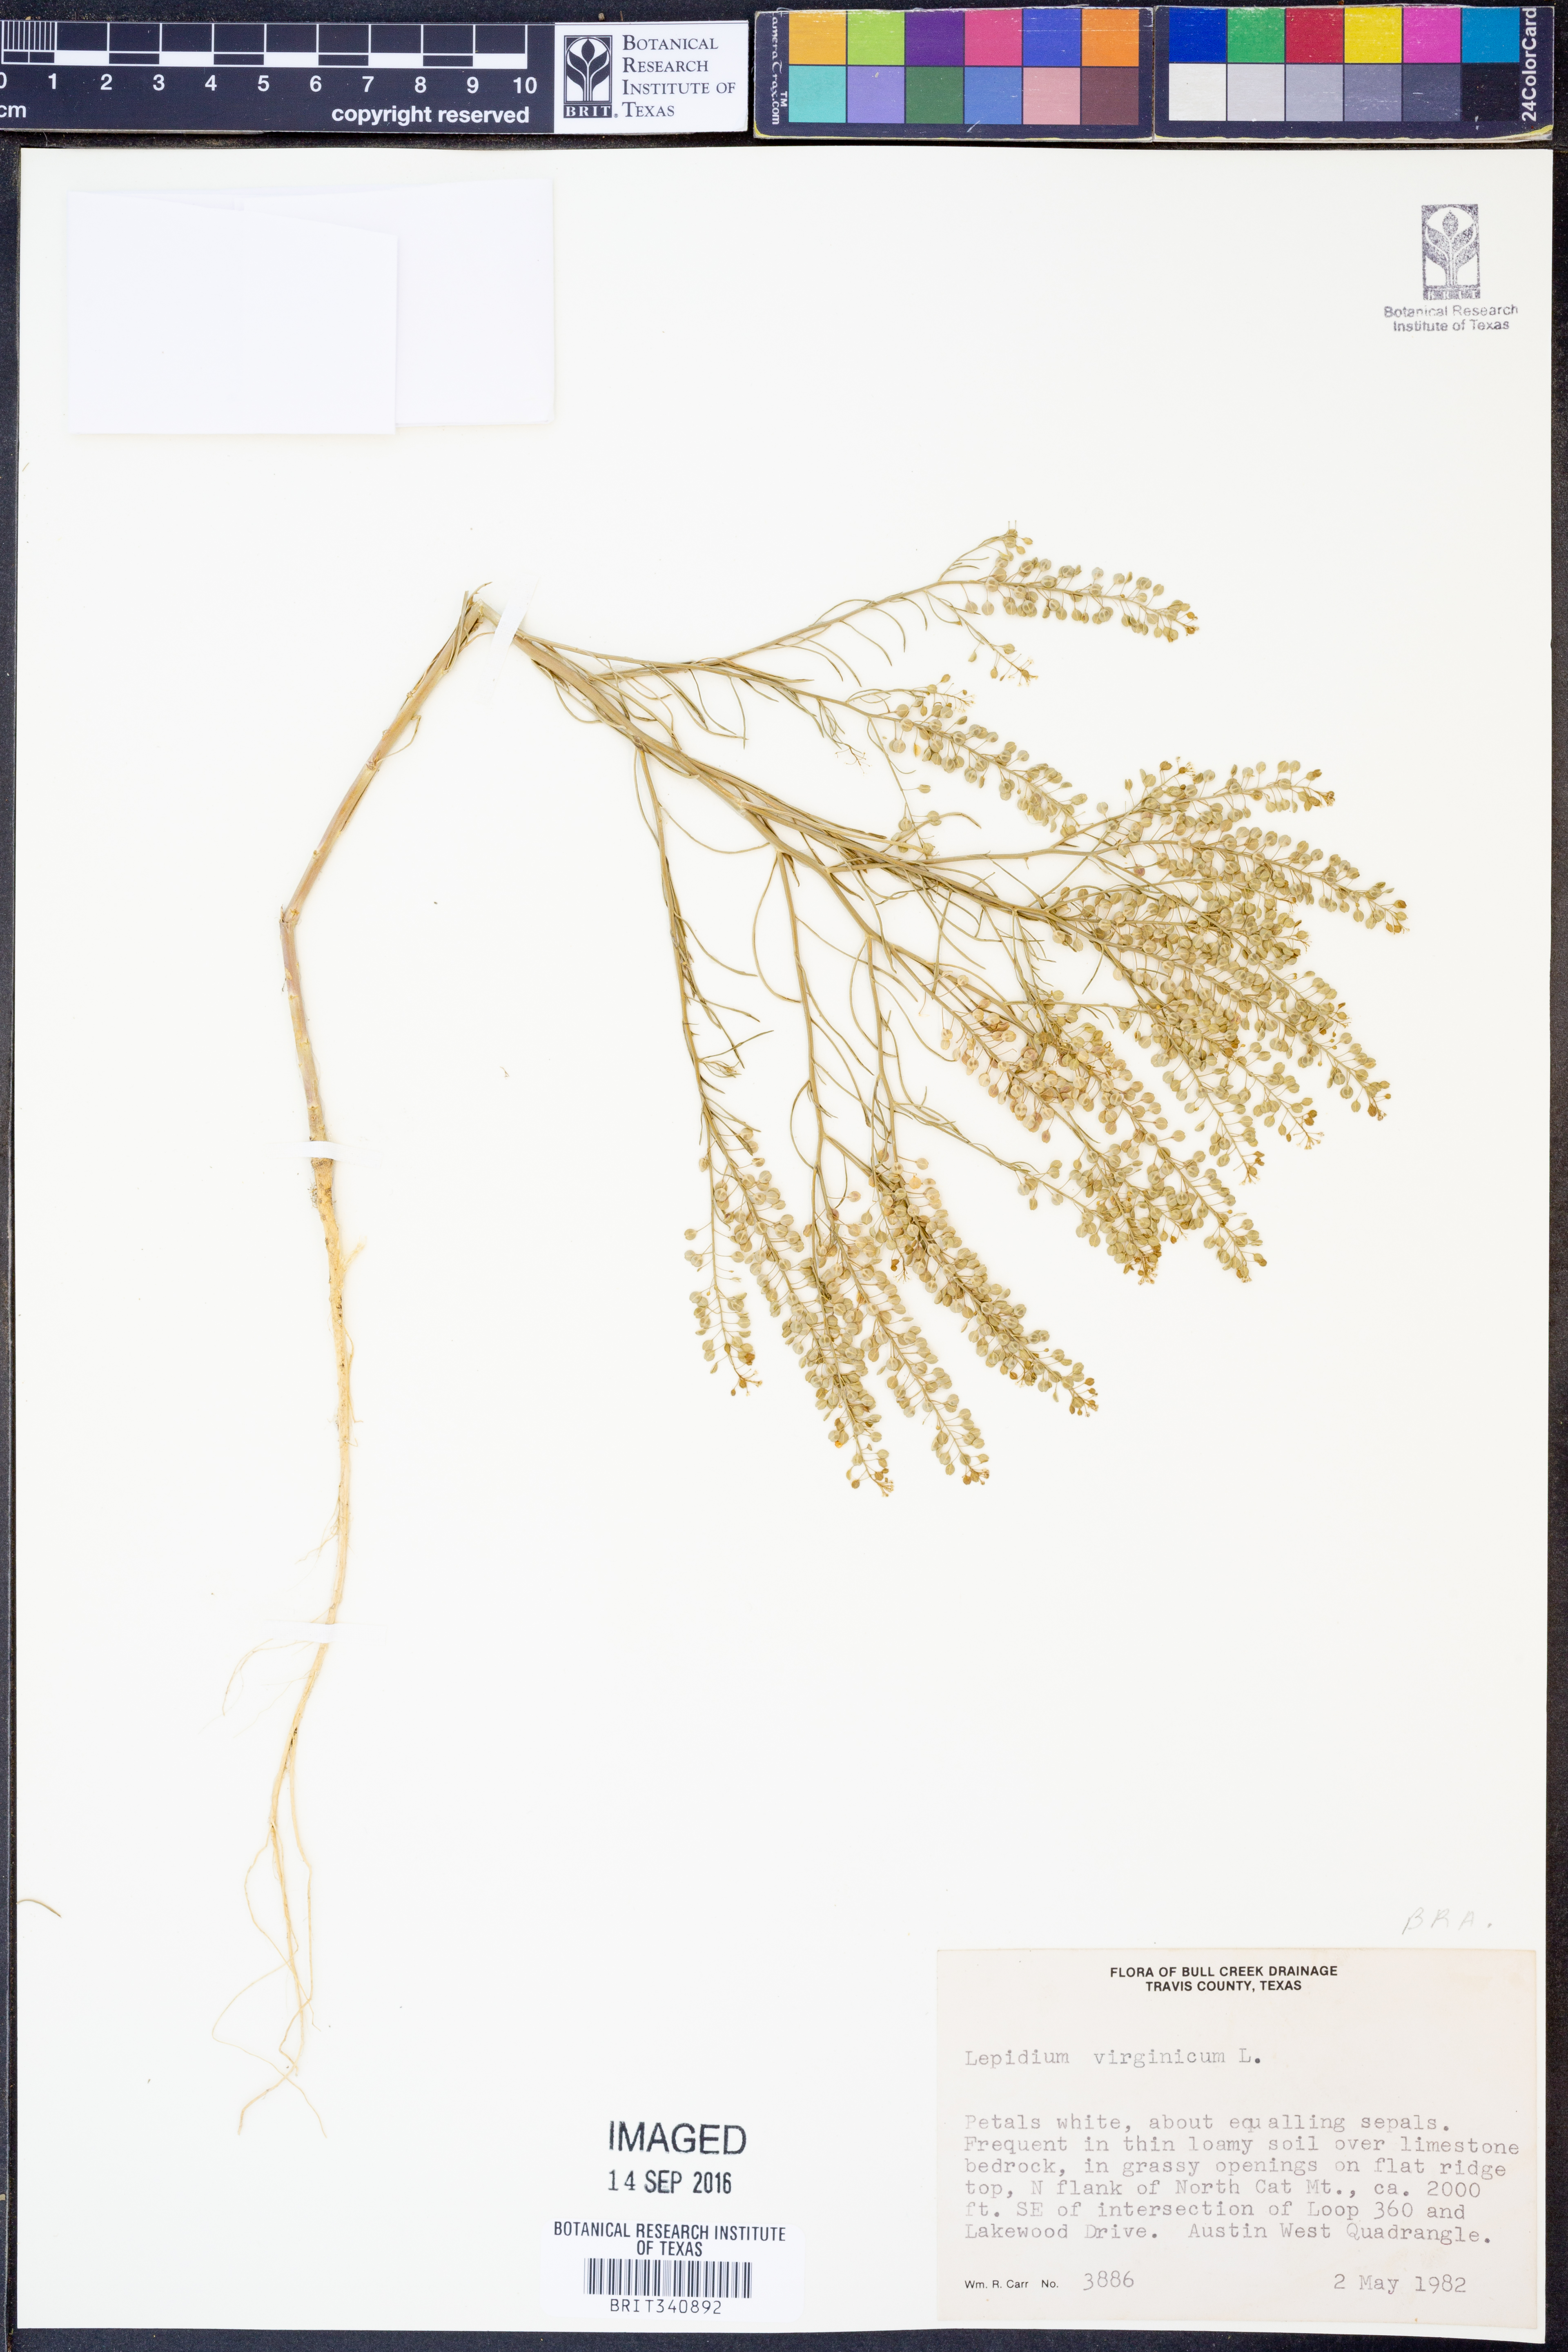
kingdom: Plantae
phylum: Tracheophyta
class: Magnoliopsida
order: Brassicales
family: Brassicaceae
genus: Lepidium
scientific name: Lepidium virginicum
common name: Least pepperwort
